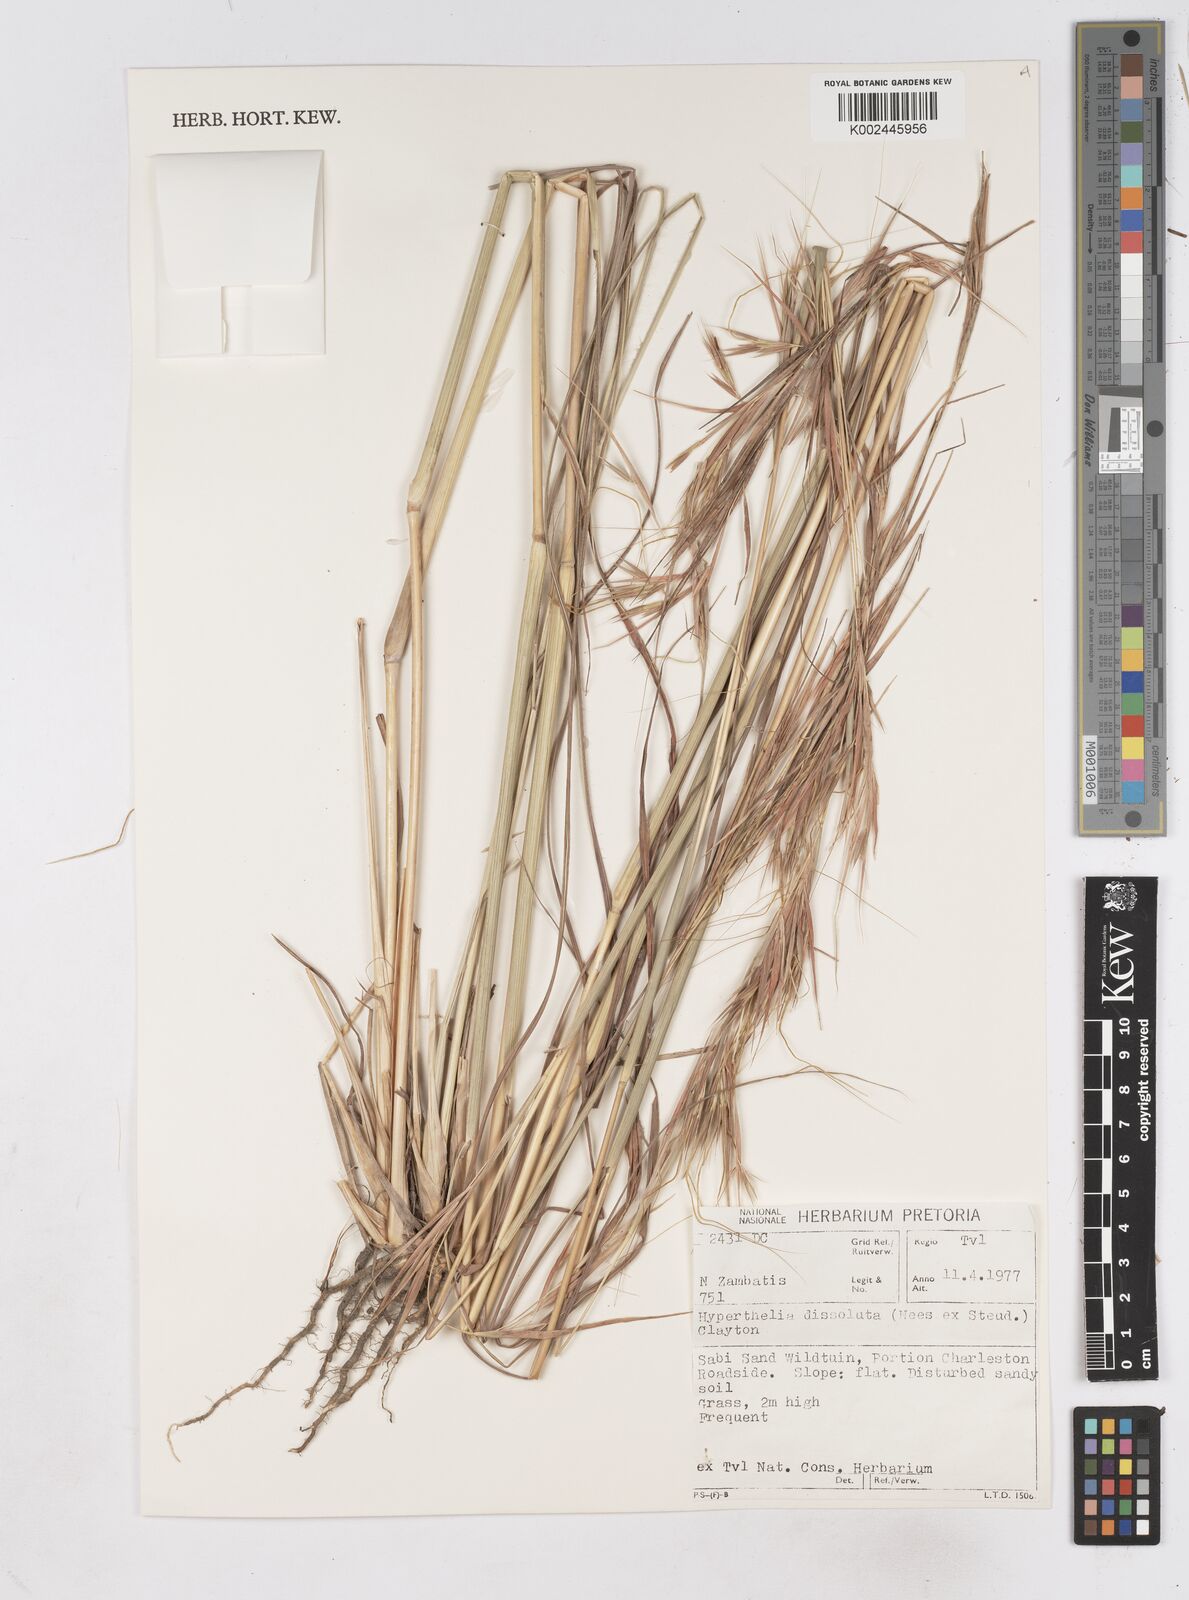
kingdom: Plantae
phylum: Tracheophyta
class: Liliopsida
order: Poales
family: Poaceae
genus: Hyperthelia
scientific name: Hyperthelia dissoluta
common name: Yellow thatching grass
